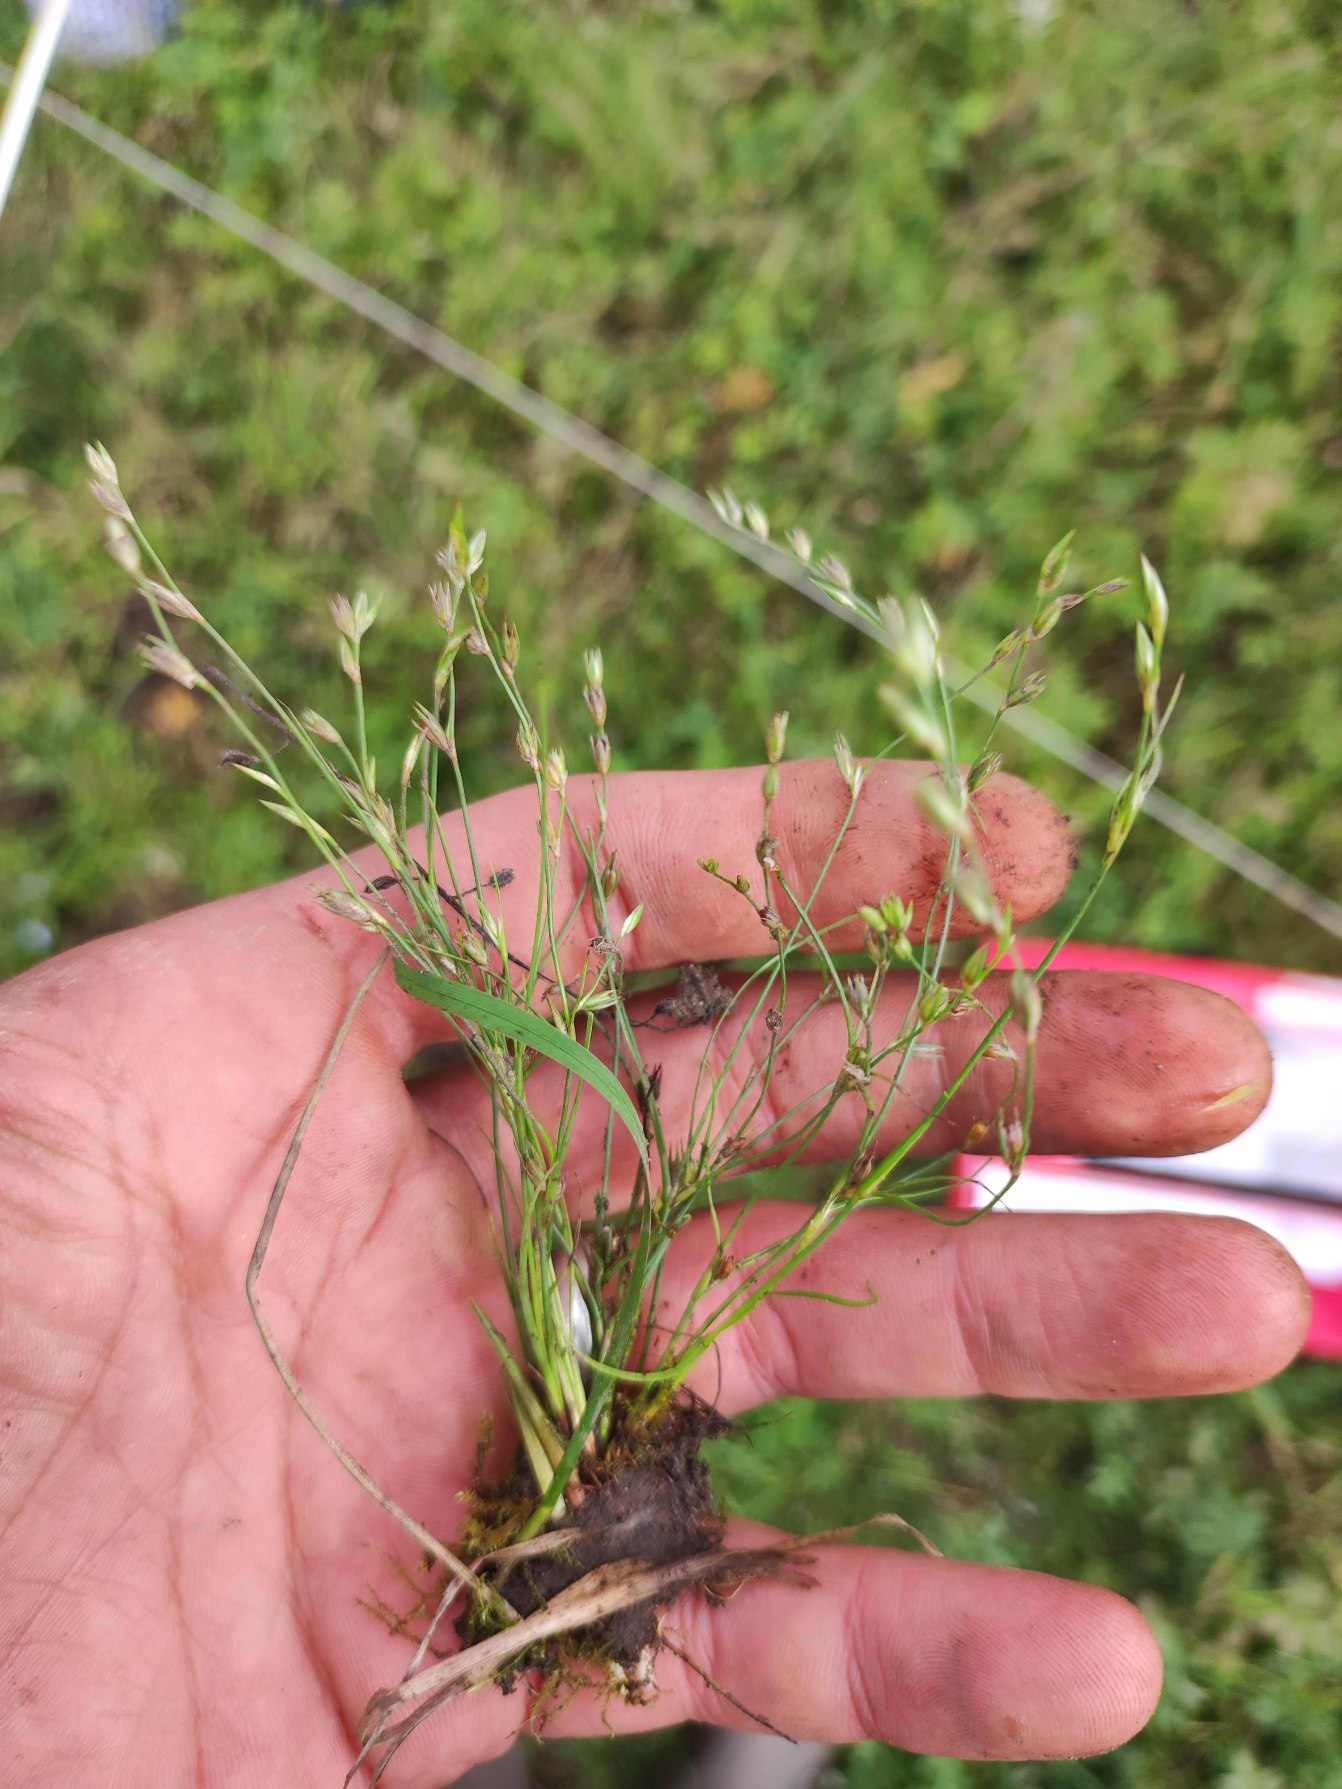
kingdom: Plantae
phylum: Tracheophyta
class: Liliopsida
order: Poales
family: Juncaceae
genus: Juncus
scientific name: Juncus bufonius
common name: Tudse-siv
